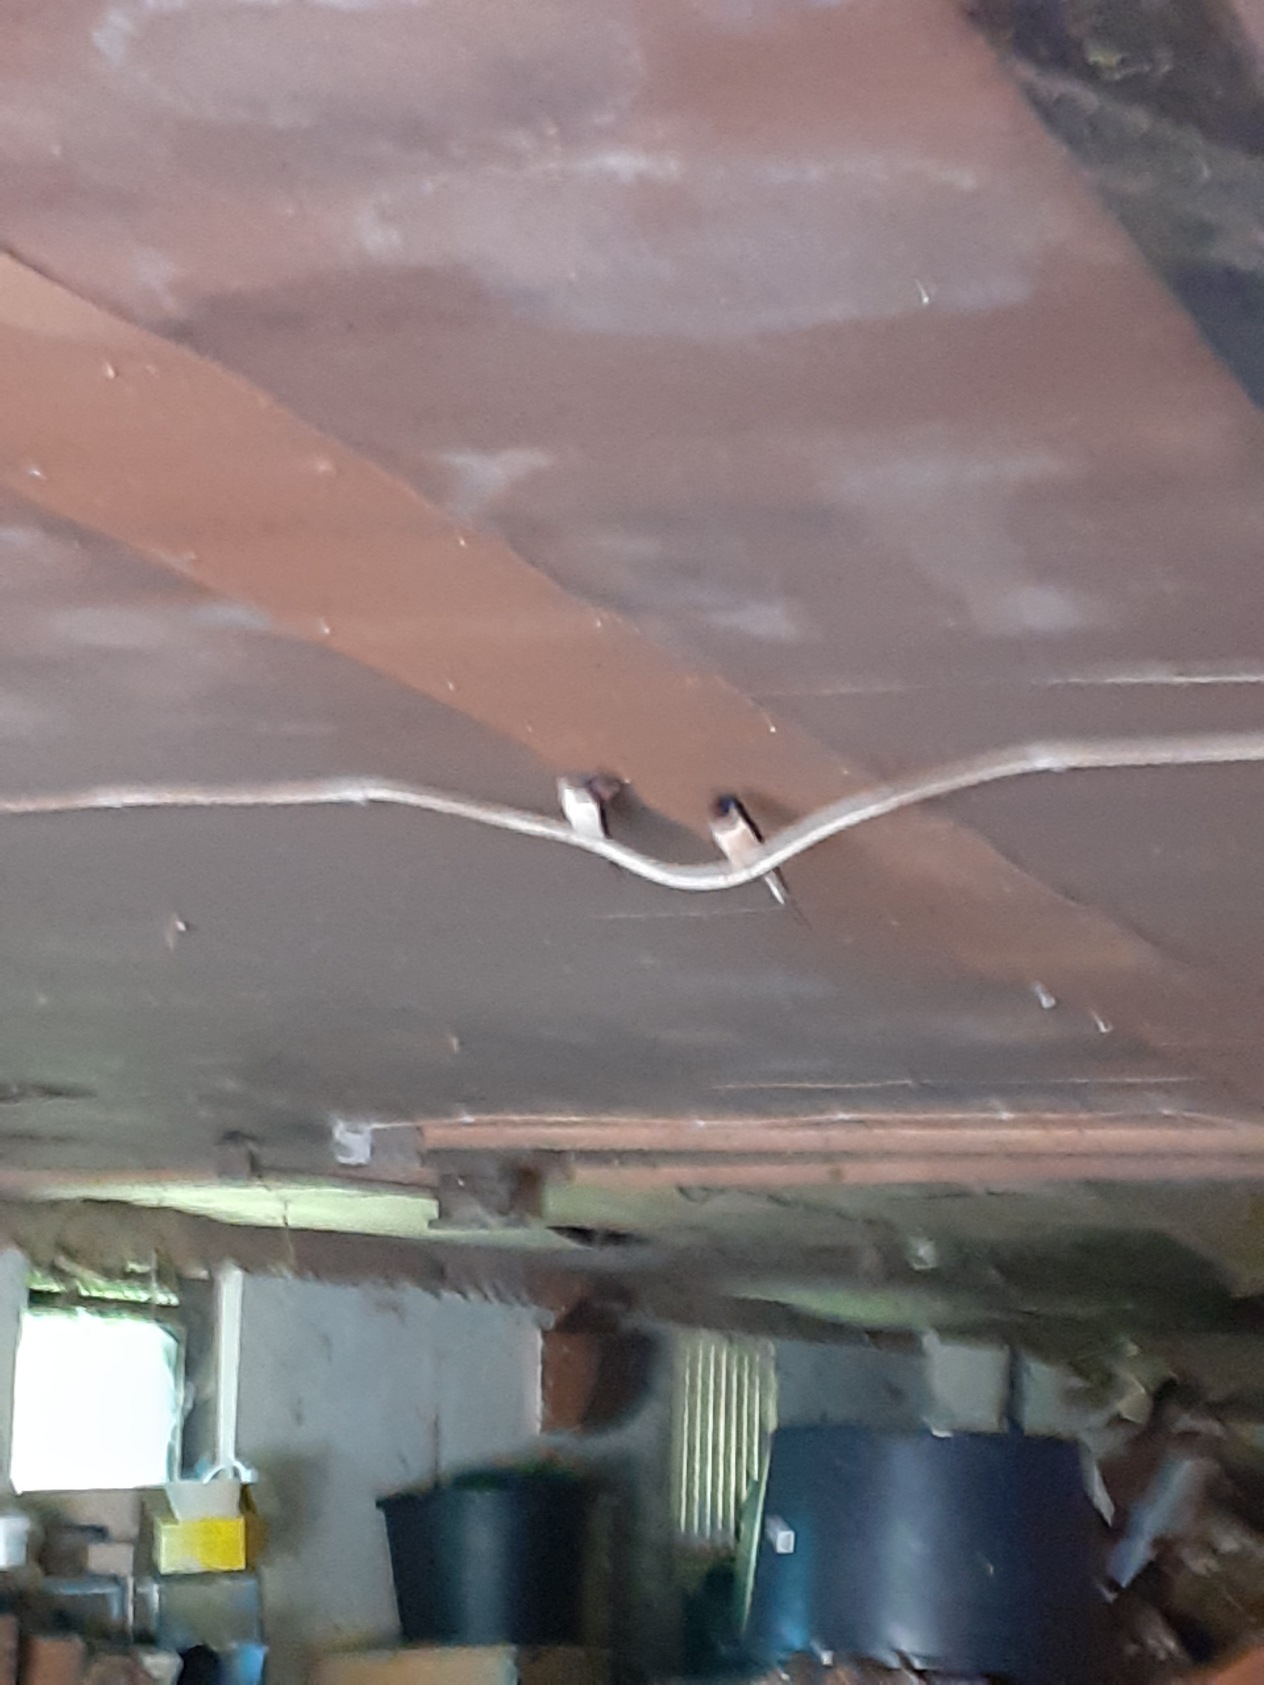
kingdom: Animalia
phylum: Chordata
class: Aves
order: Passeriformes
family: Hirundinidae
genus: Hirundo
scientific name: Hirundo rustica
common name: Landsvale
